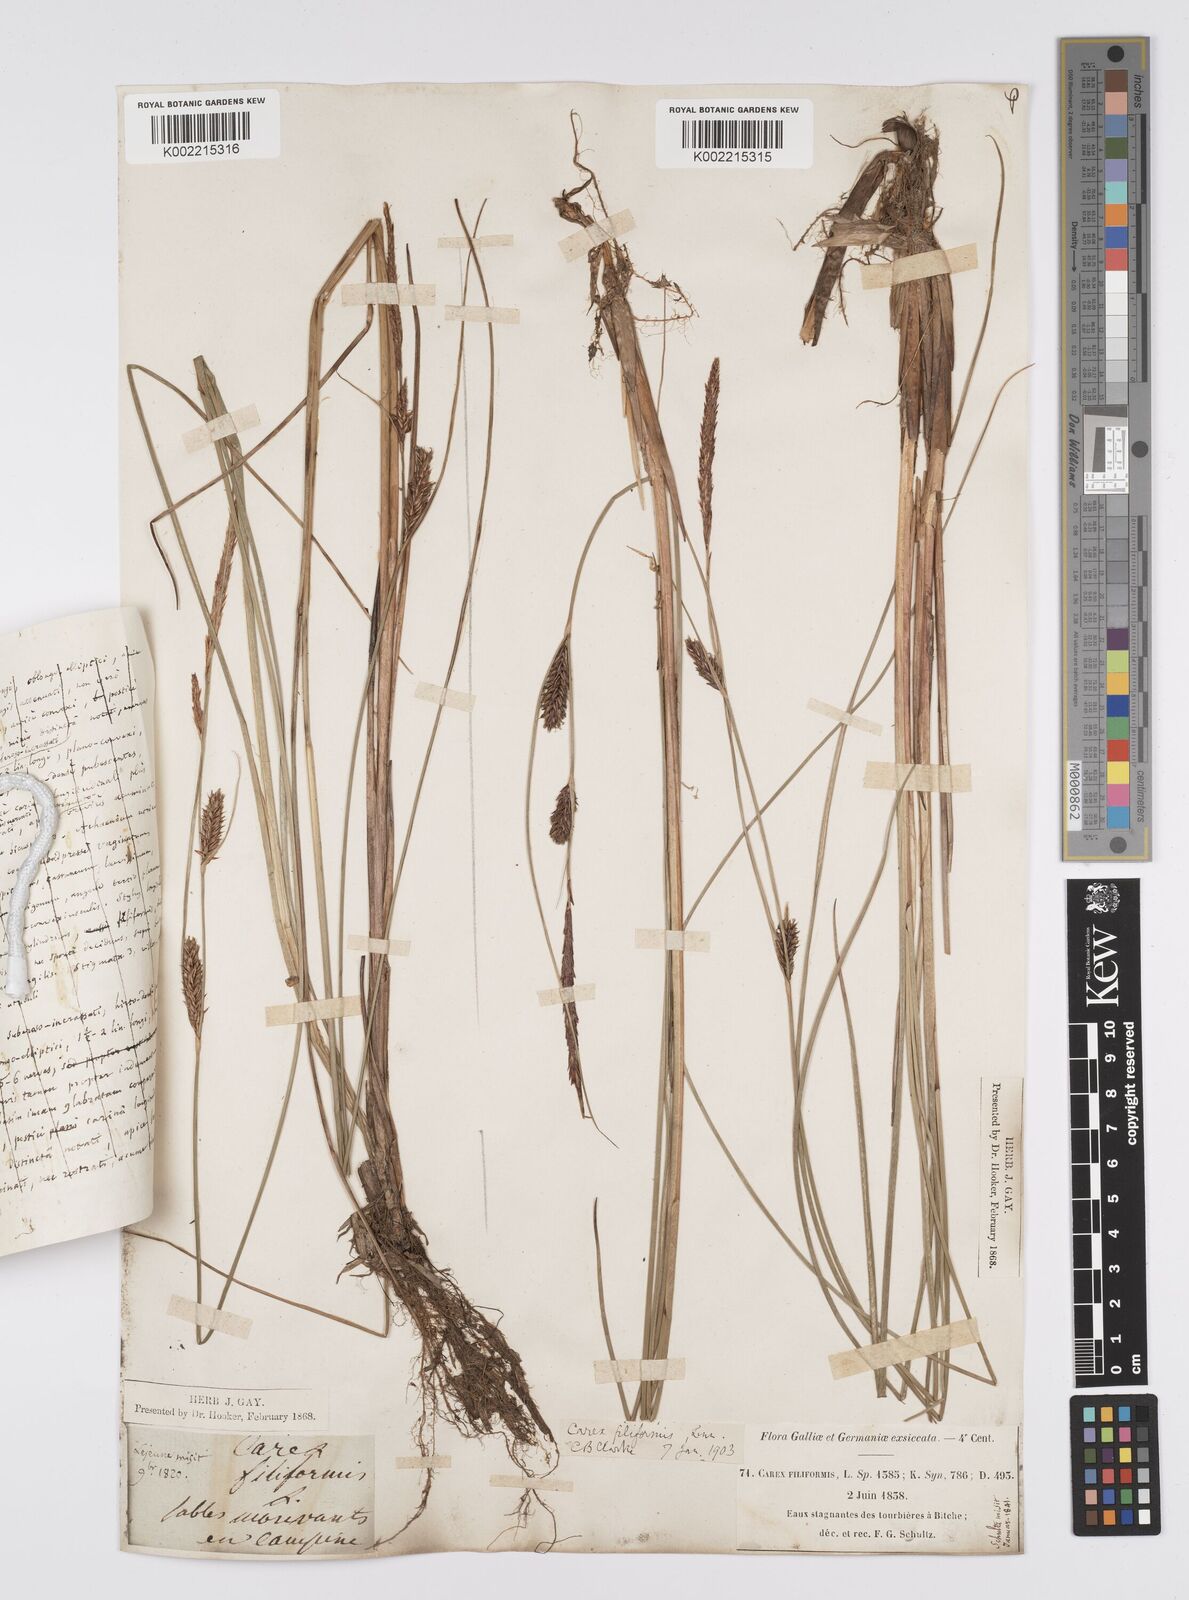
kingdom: Plantae
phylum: Tracheophyta
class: Liliopsida
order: Poales
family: Cyperaceae
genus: Carex
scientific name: Carex lasiocarpa
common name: Slender sedge
